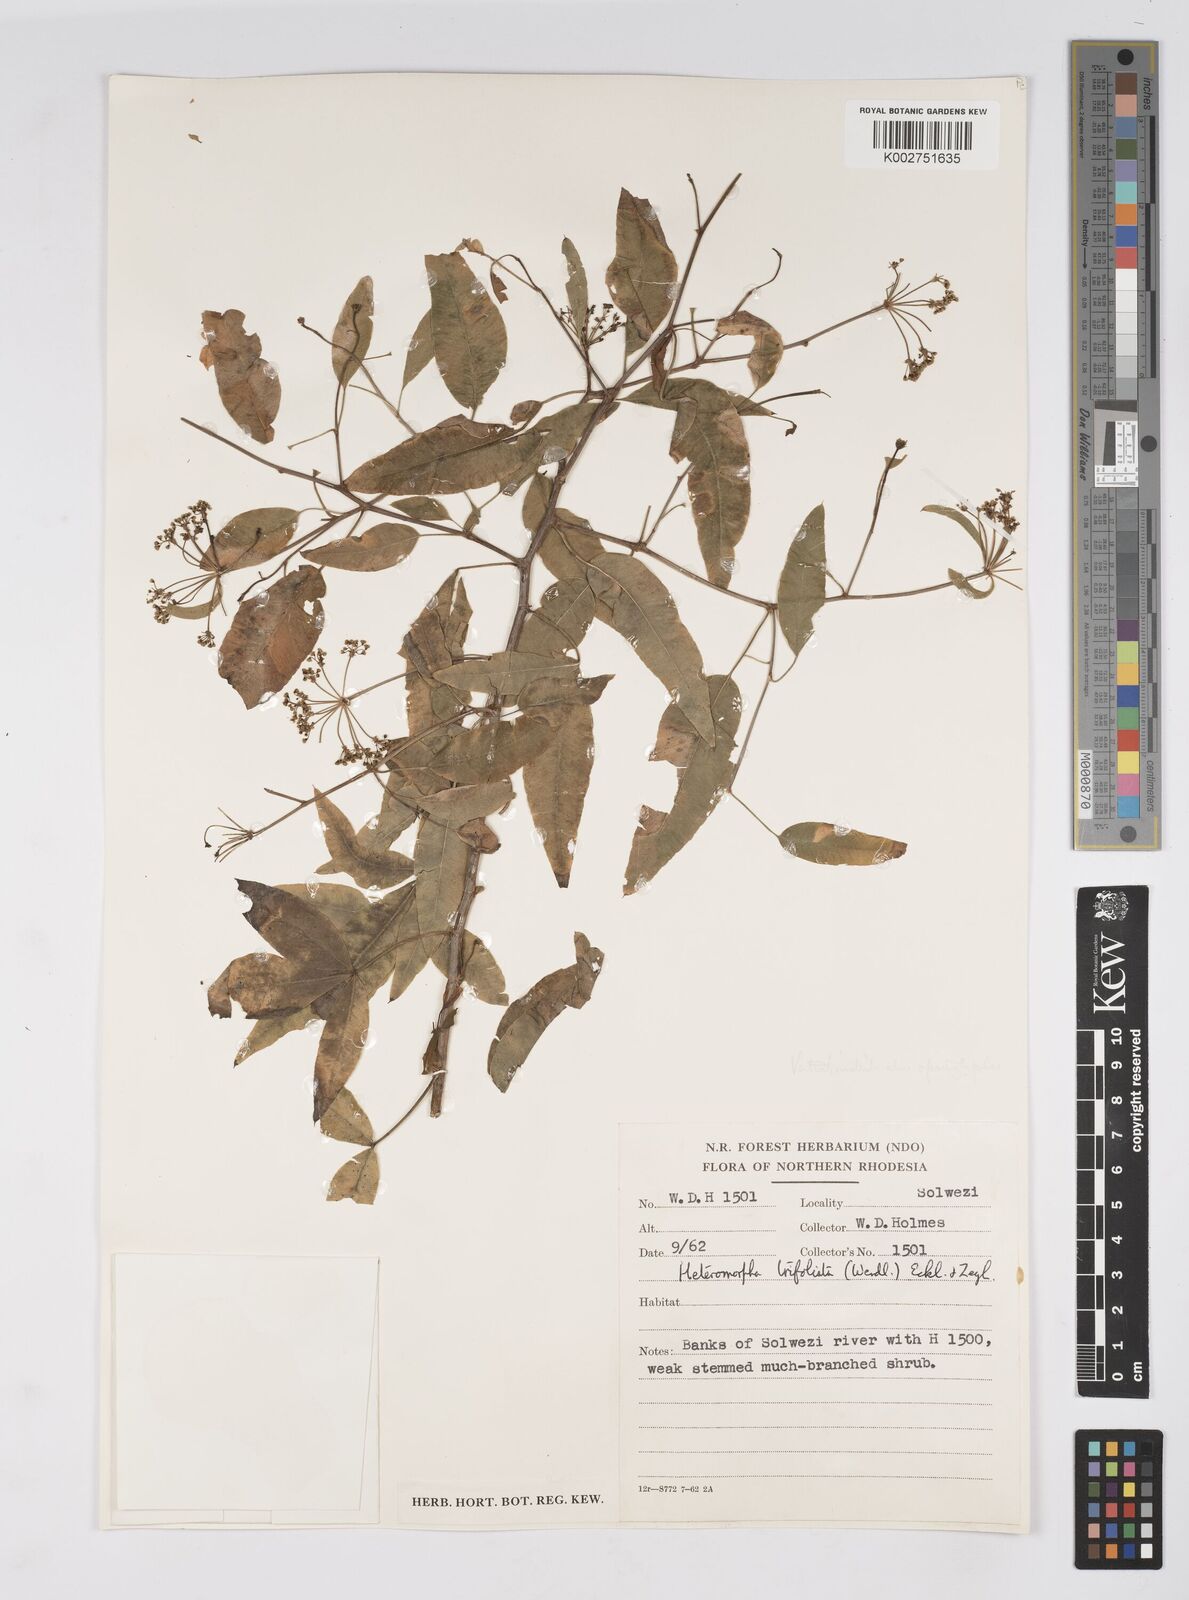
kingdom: Plantae
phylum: Tracheophyta
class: Magnoliopsida
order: Apiales
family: Apiaceae
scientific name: Apiaceae
